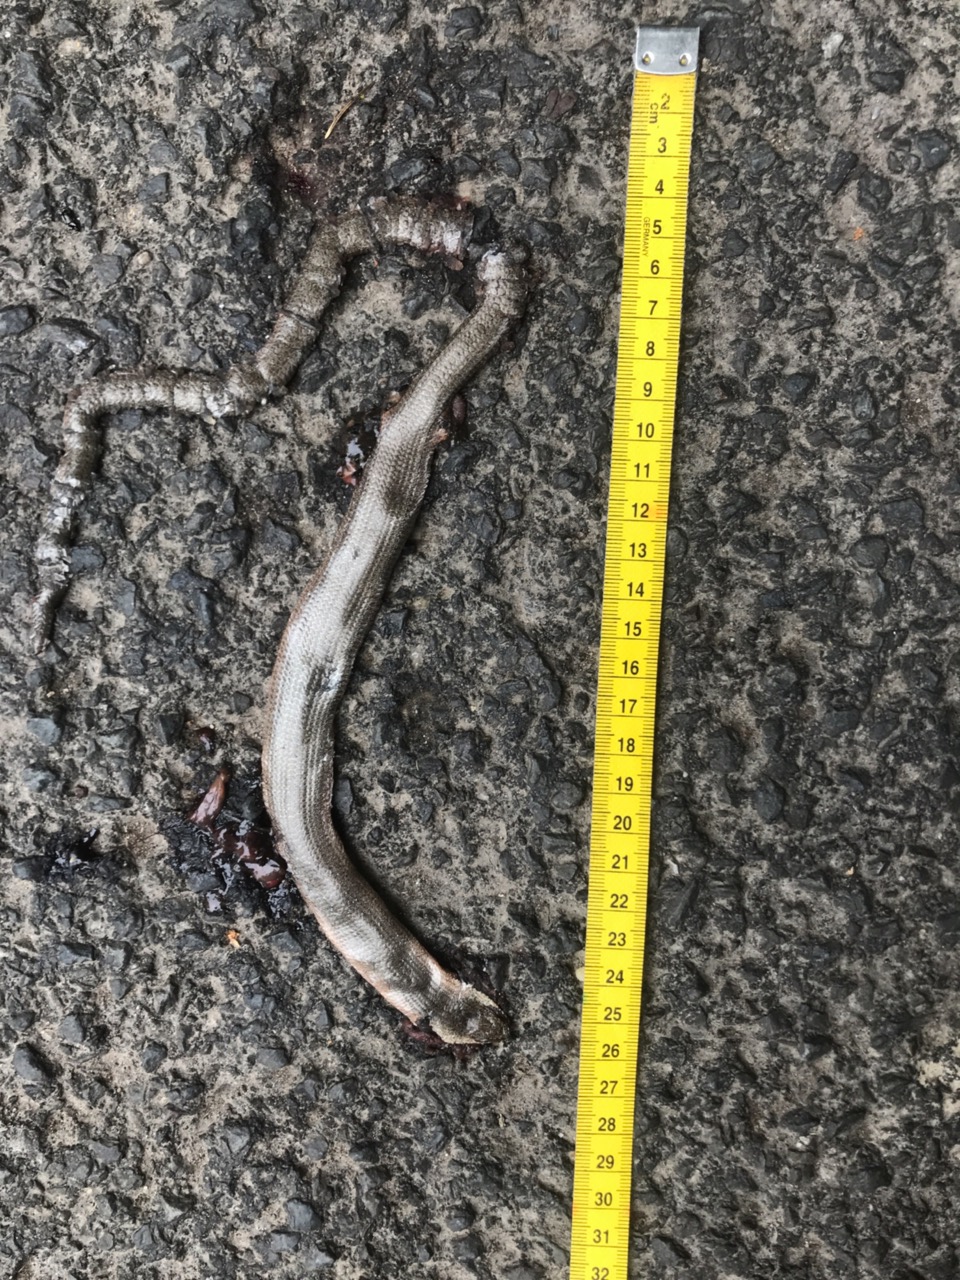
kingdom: Animalia
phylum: Chordata
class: Squamata
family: Anguidae
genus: Anguis
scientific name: Anguis fragilis
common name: Slow worm
